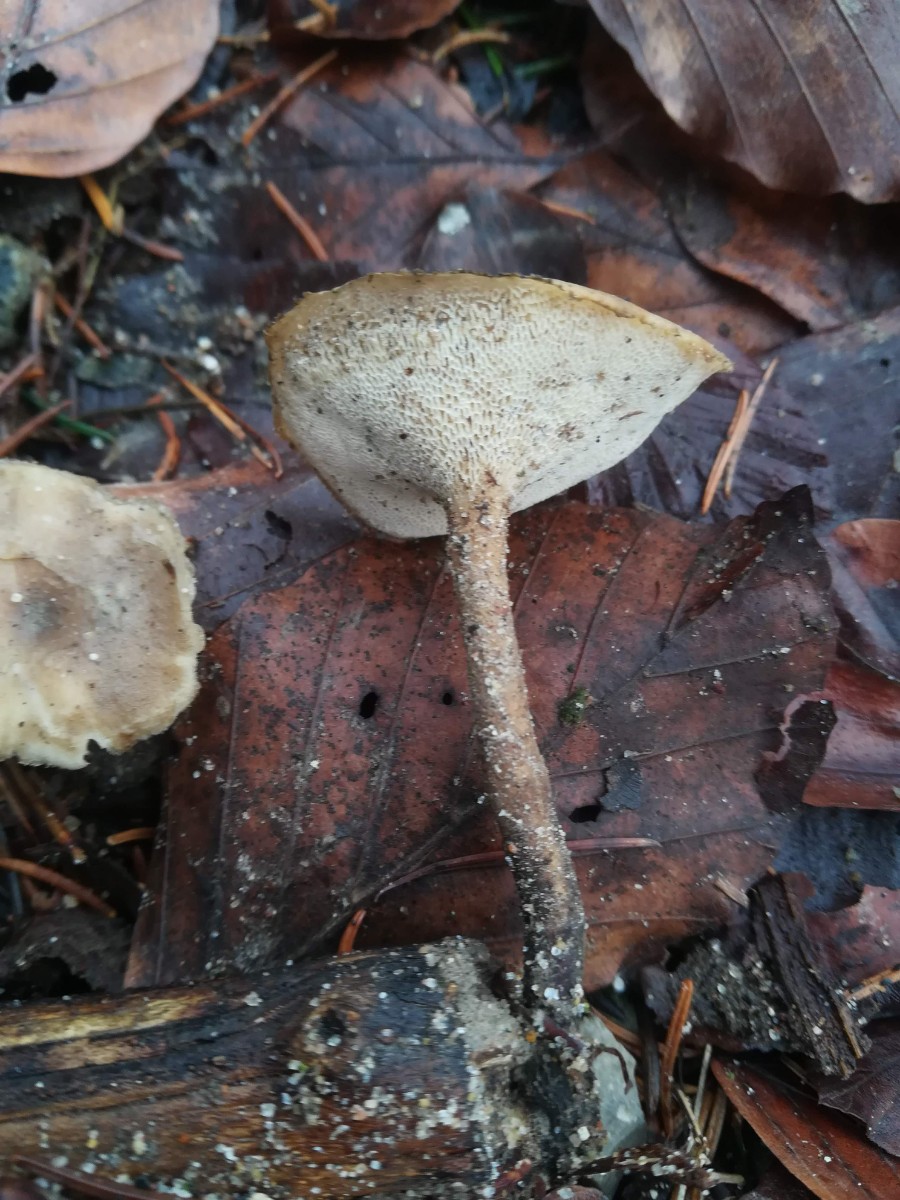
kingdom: Fungi
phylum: Basidiomycota
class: Agaricomycetes
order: Polyporales
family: Polyporaceae
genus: Lentinus
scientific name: Lentinus brumalis
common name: vinter-stilkporesvamp
